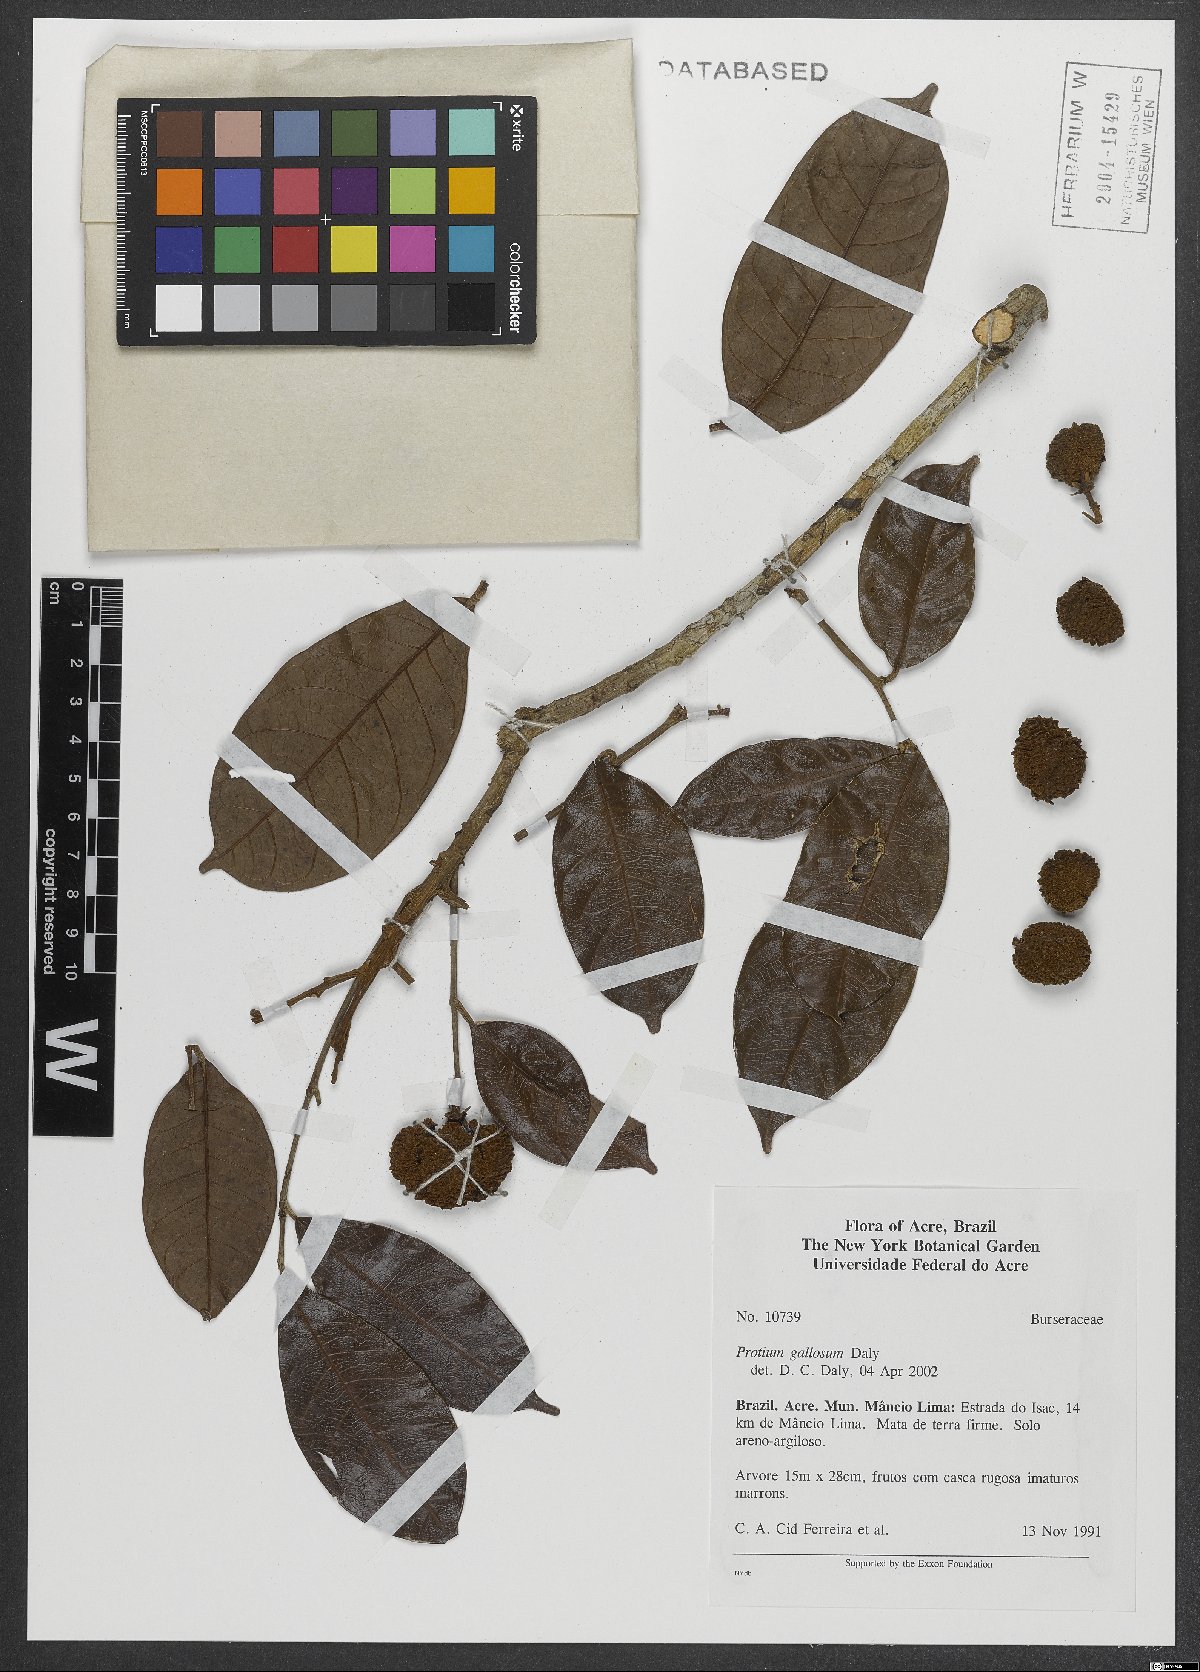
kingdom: Plantae
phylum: Tracheophyta
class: Magnoliopsida
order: Sapindales
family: Burseraceae
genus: Protium
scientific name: Protium gallosum
